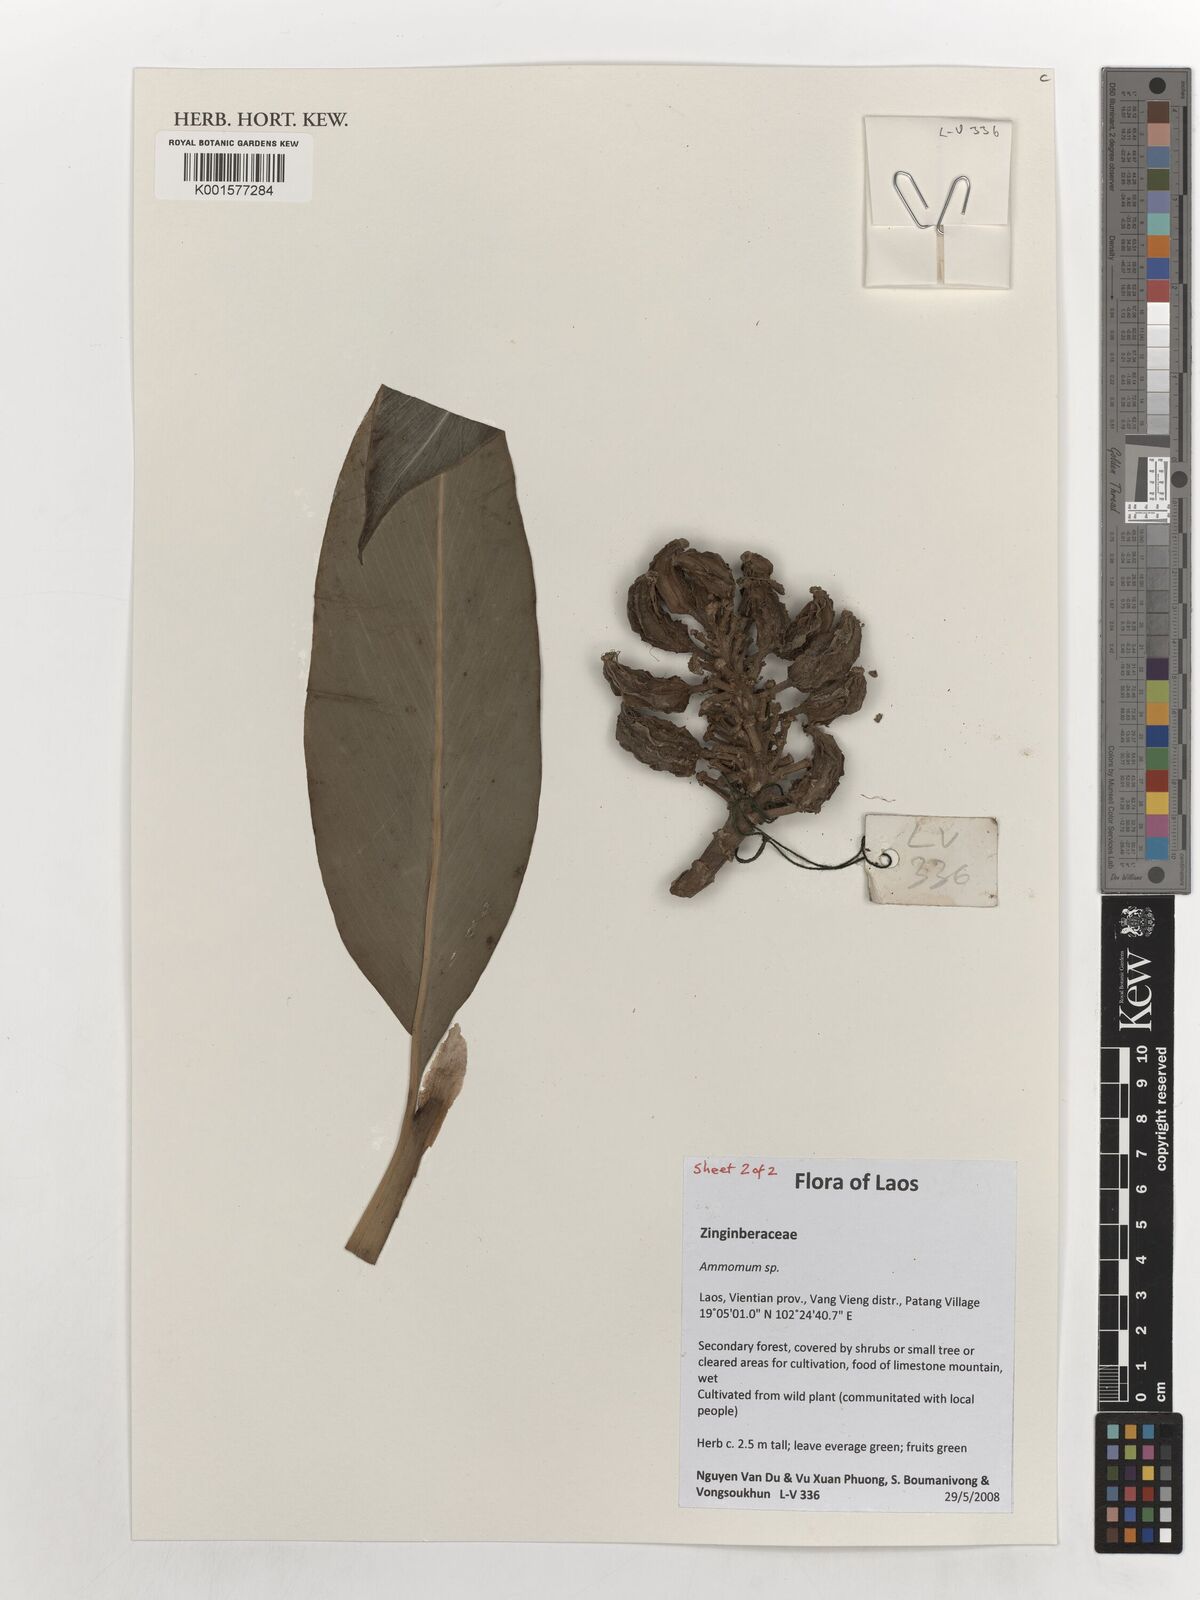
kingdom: Plantae
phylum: Tracheophyta
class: Liliopsida
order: Zingiberales
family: Zingiberaceae
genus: Amomum
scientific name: Amomum
